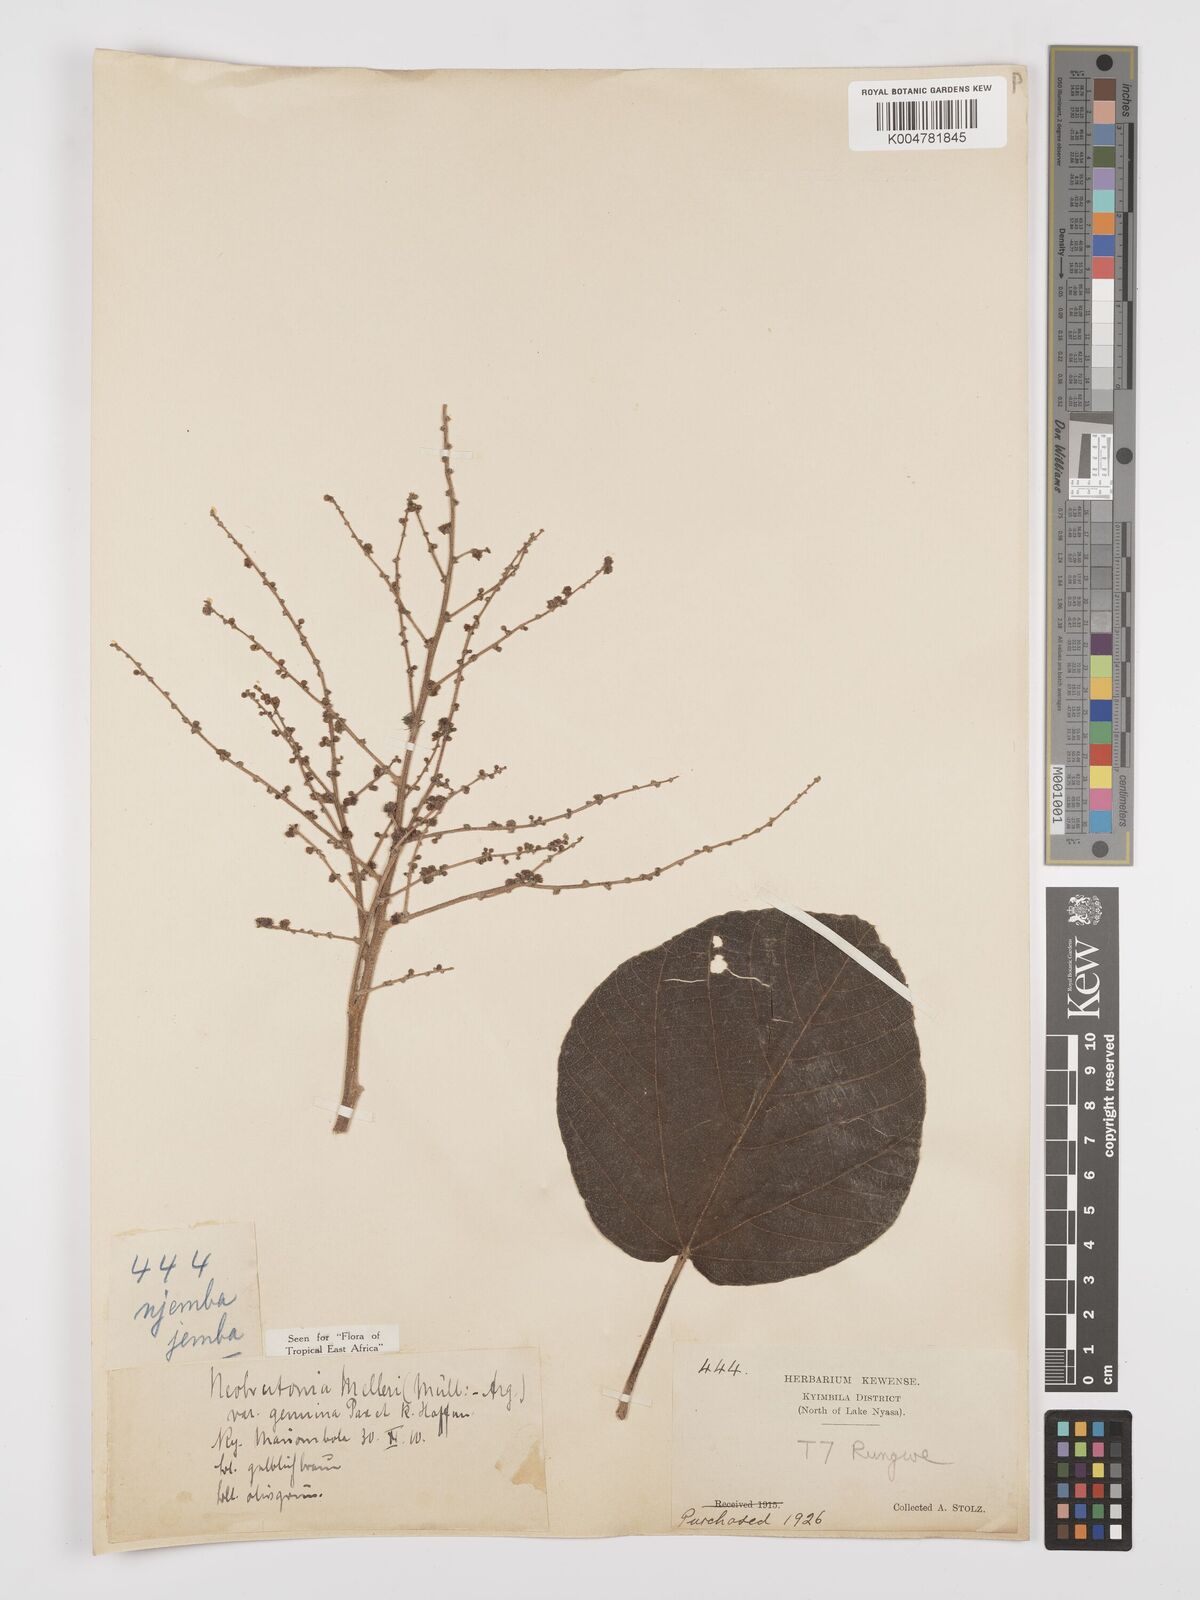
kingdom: Plantae
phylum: Tracheophyta
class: Magnoliopsida
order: Malpighiales
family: Euphorbiaceae
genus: Neoboutonia
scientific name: Neoboutonia melleri
